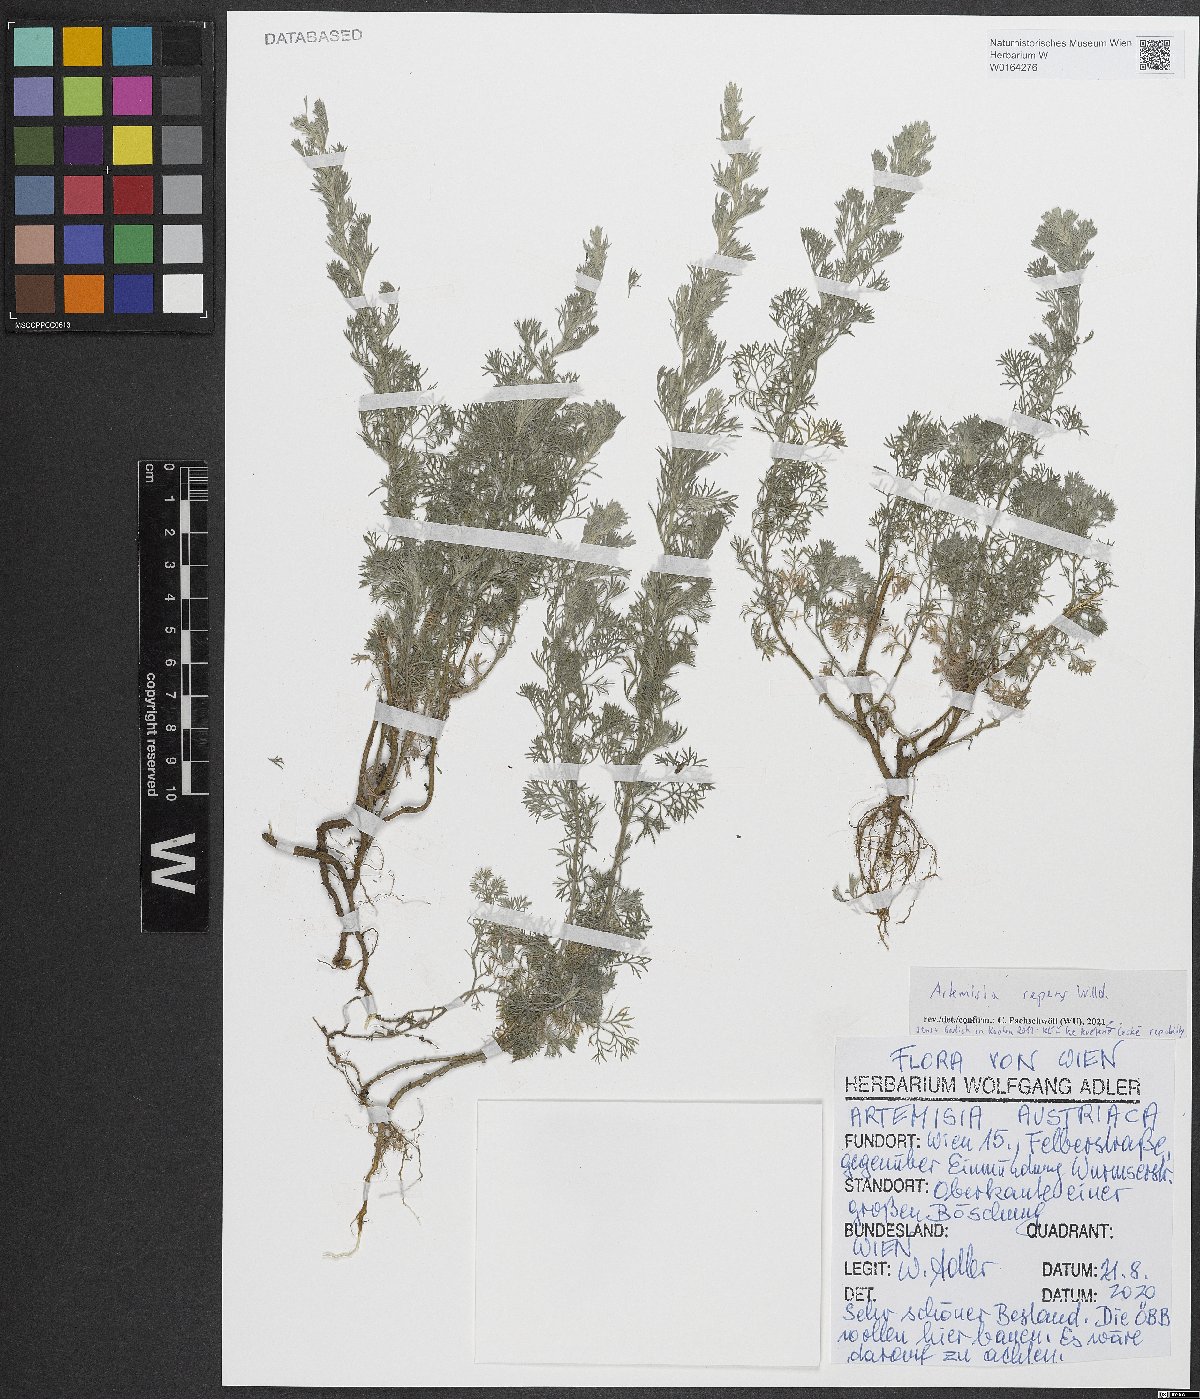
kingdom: Plantae
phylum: Tracheophyta
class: Magnoliopsida
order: Asterales
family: Asteraceae
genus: Artemisia
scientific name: Artemisia repens
